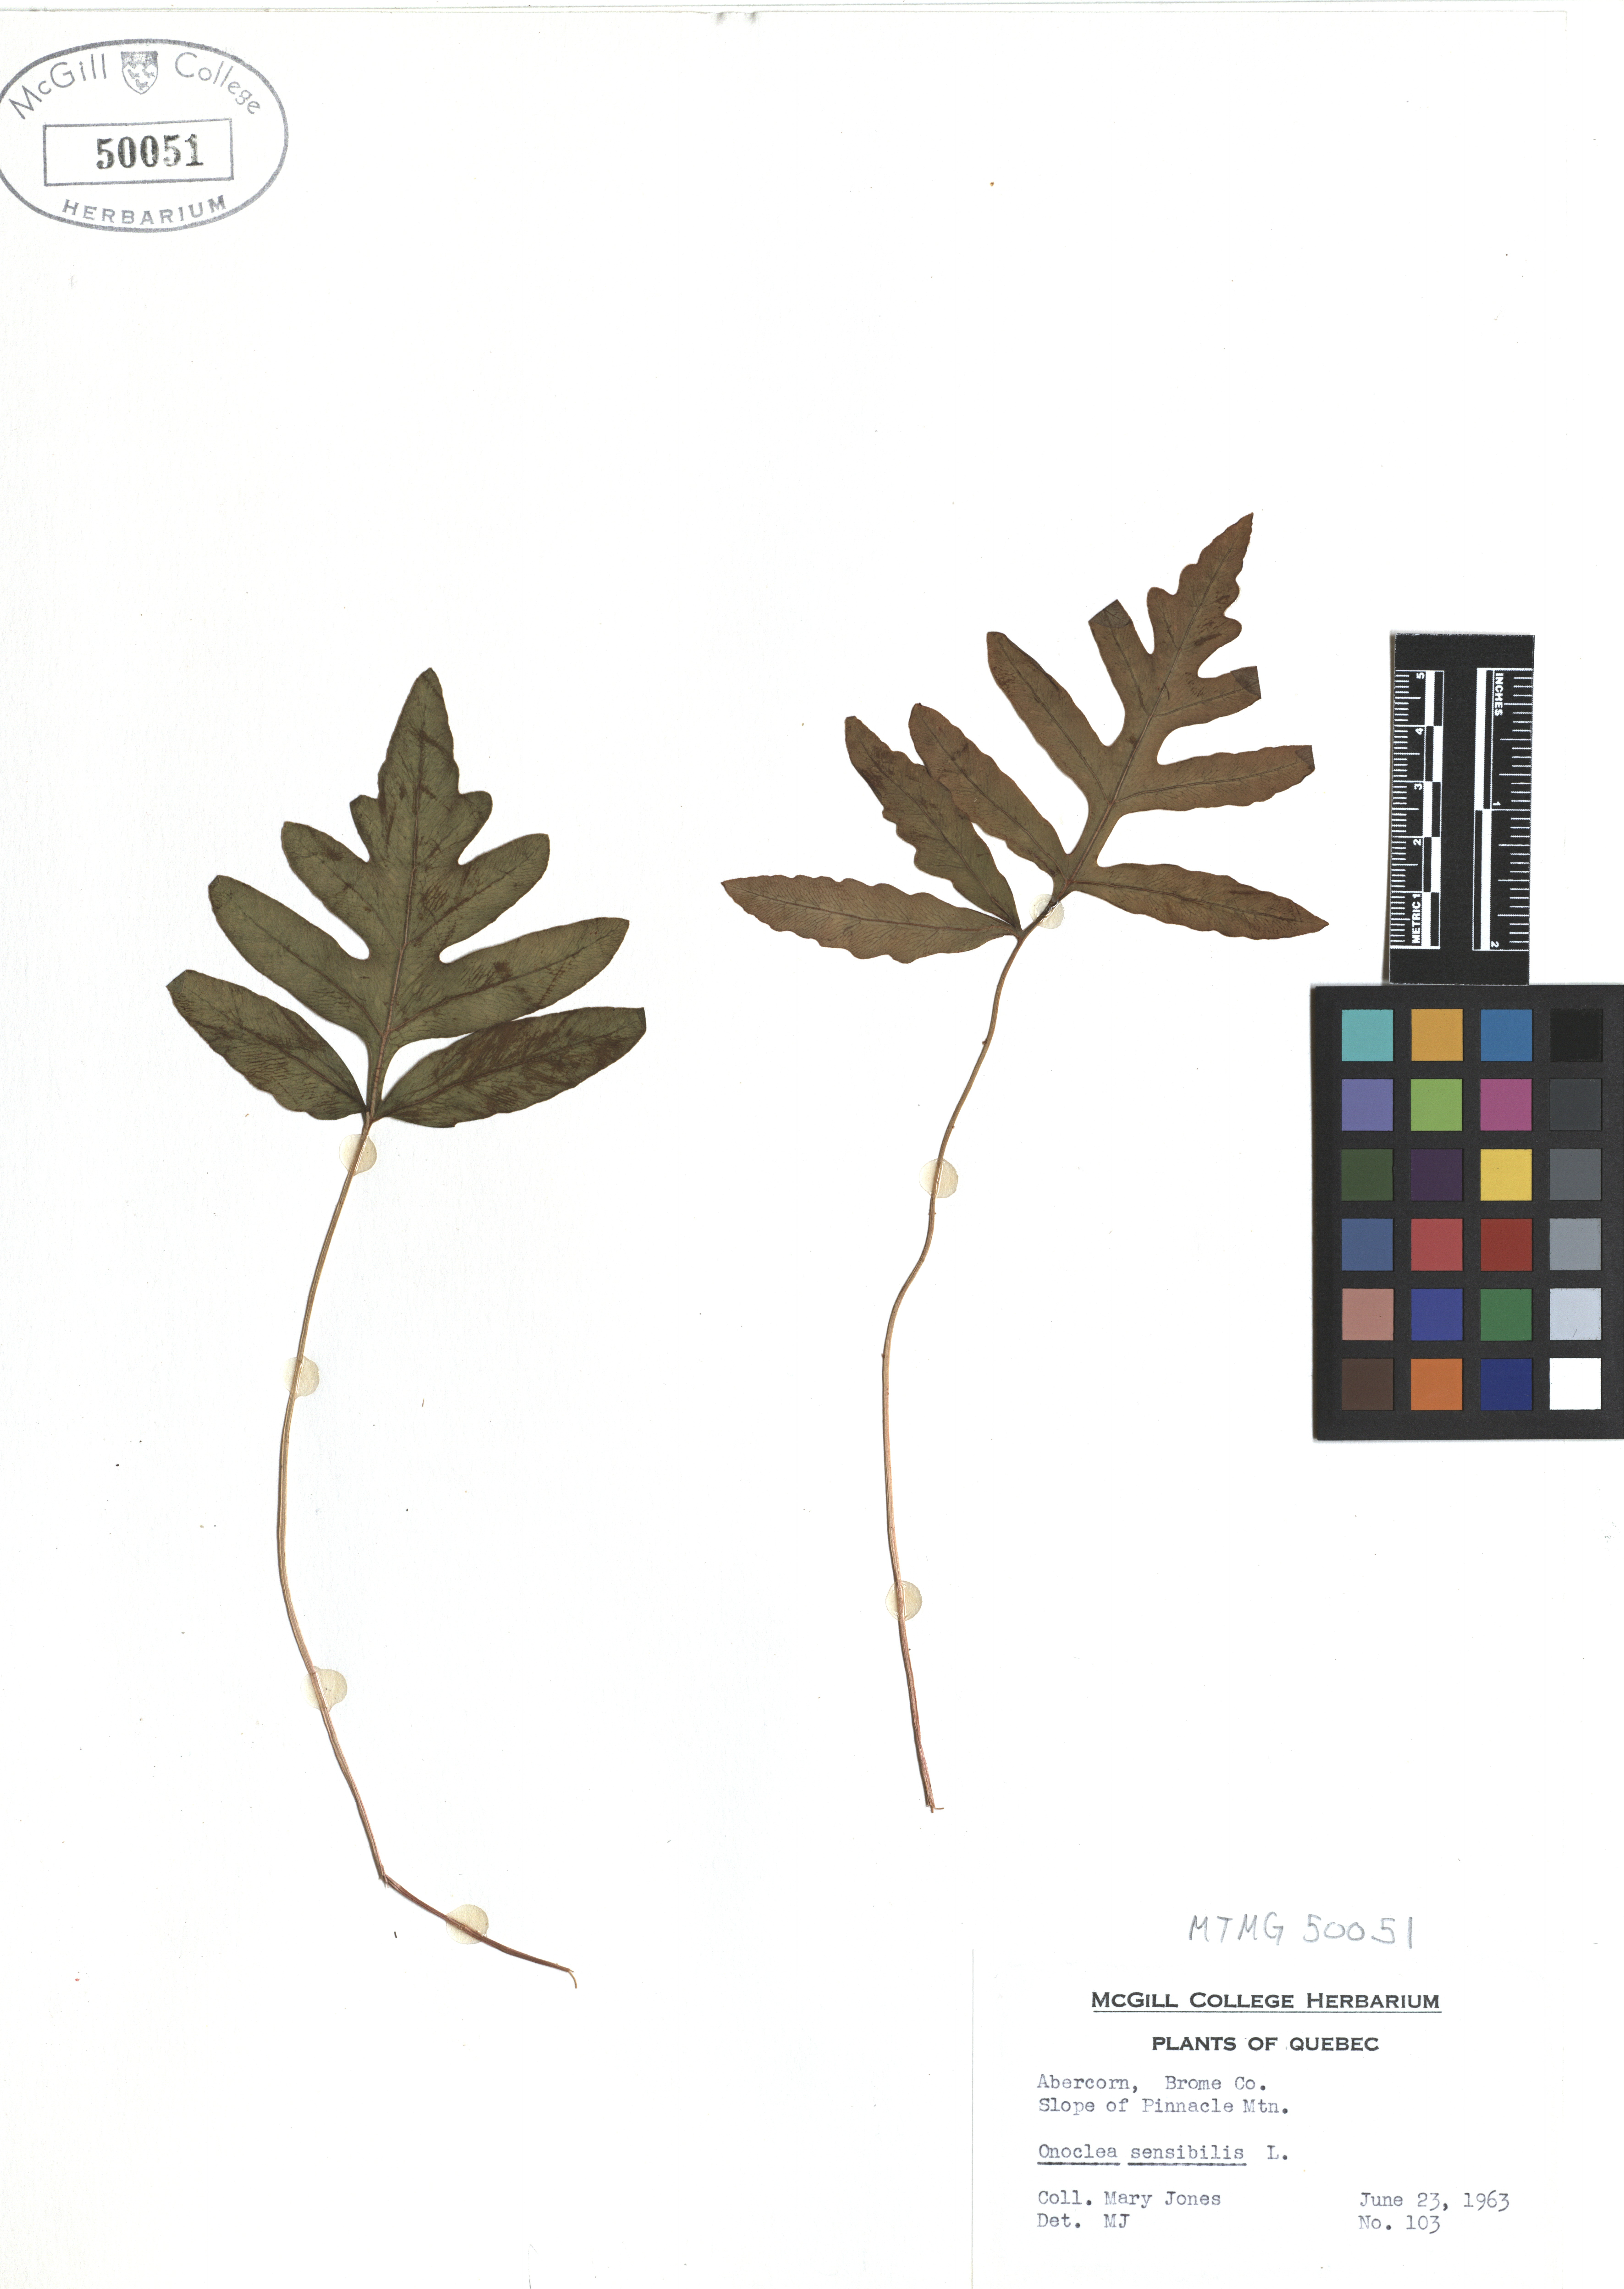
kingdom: Plantae
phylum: Tracheophyta
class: Polypodiopsida
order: Polypodiales
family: Onocleaceae
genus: Onoclea
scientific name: Onoclea sensibilis
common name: Sensitive fern
